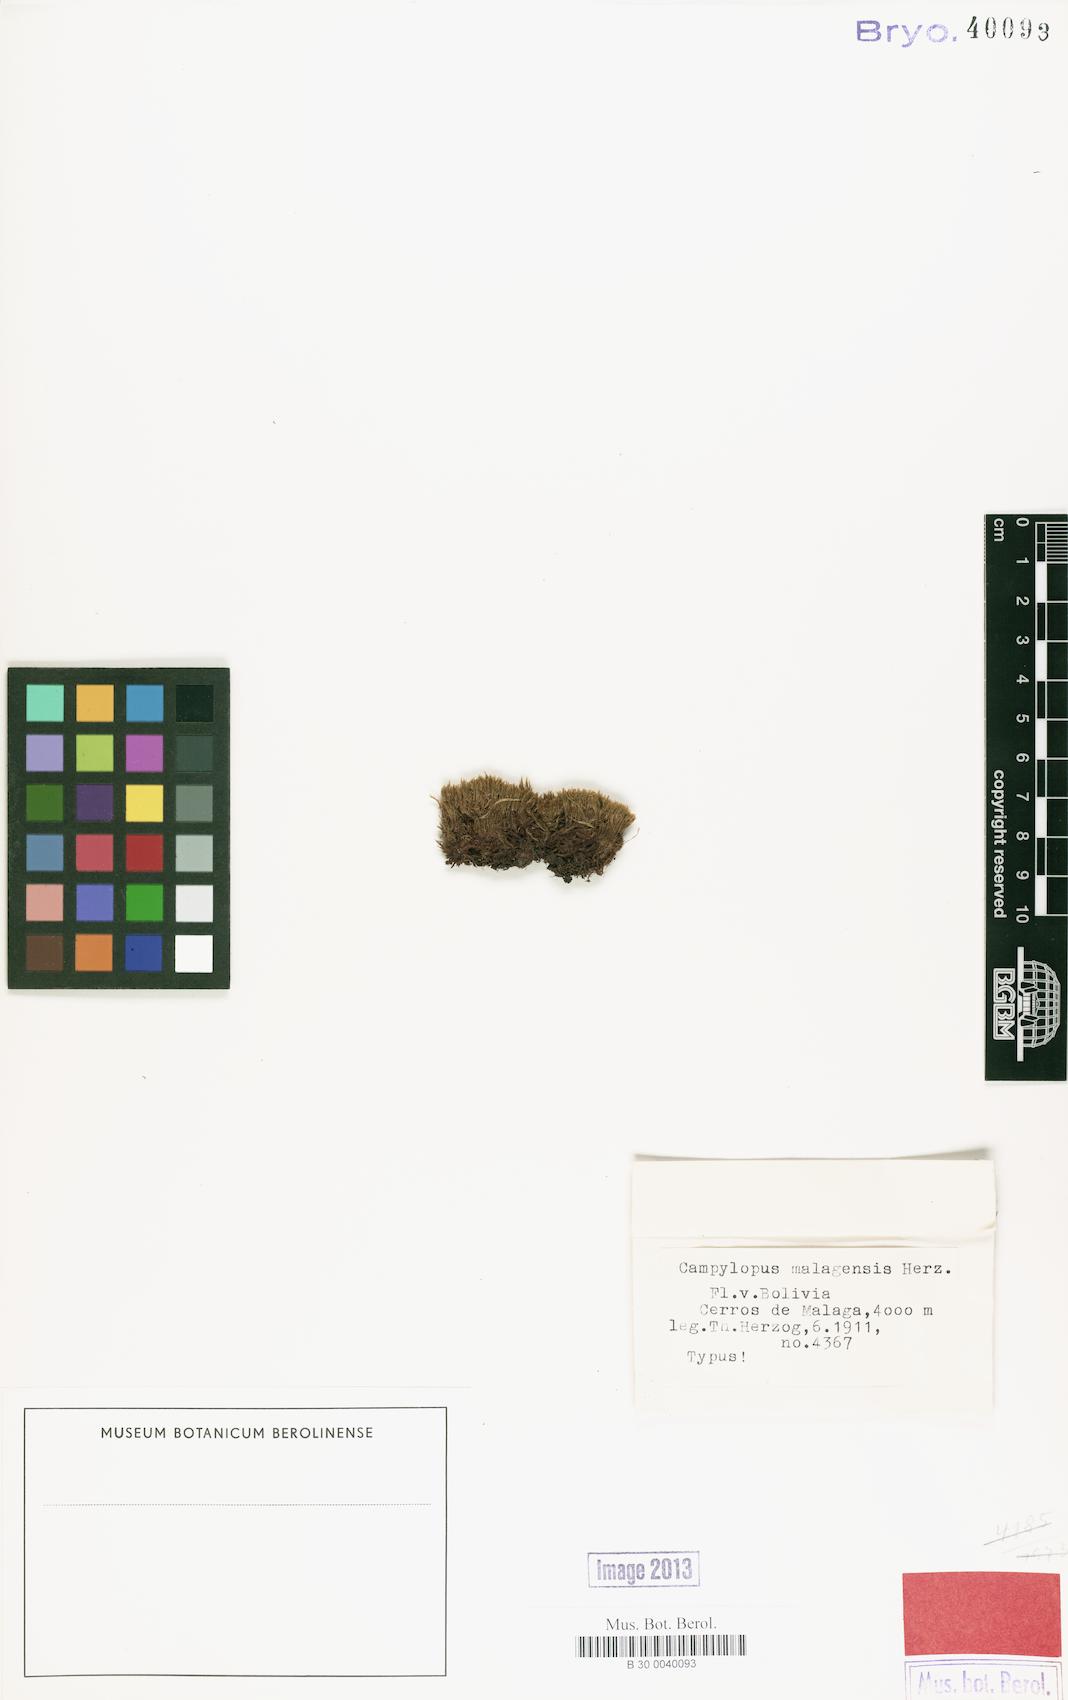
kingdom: Plantae
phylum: Bryophyta
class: Bryopsida
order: Dicranales
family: Leucobryaceae
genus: Campylopodiella
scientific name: Campylopodiella flagellacea
